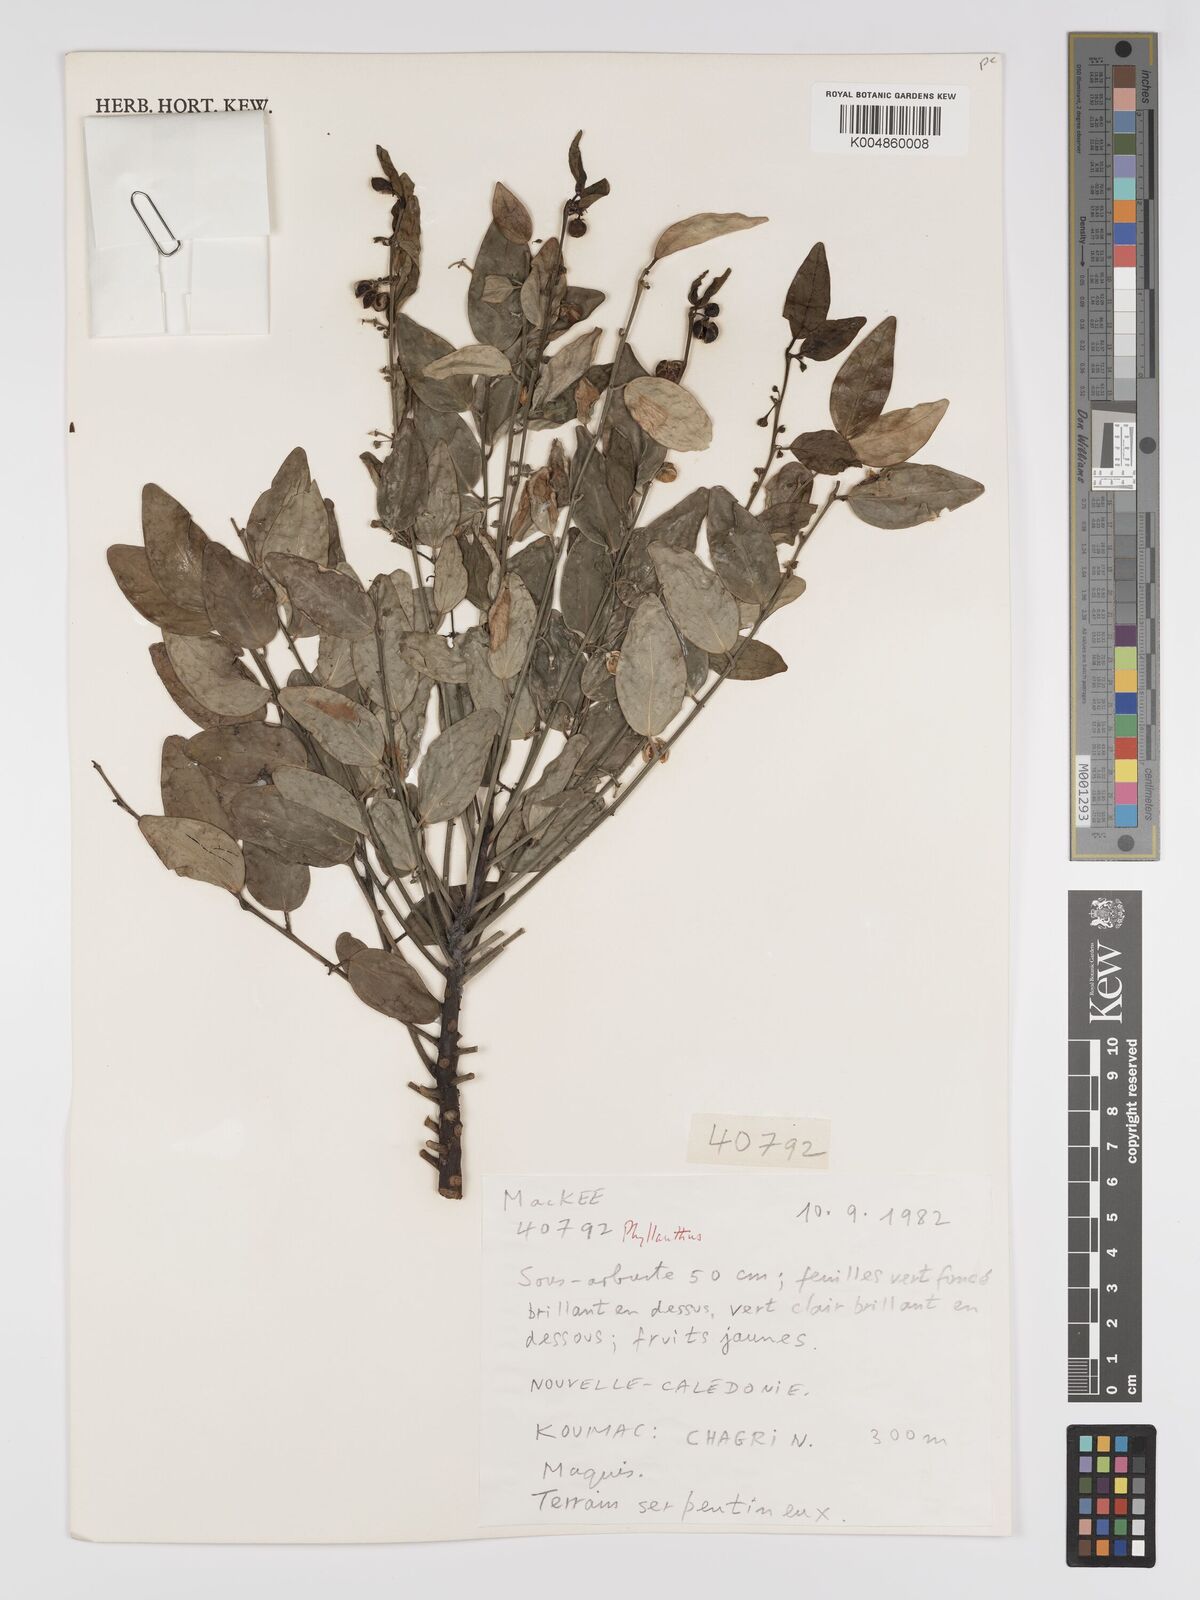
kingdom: Plantae
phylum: Tracheophyta
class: Magnoliopsida
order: Malpighiales
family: Phyllanthaceae
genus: Phyllanthus
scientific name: Phyllanthus
